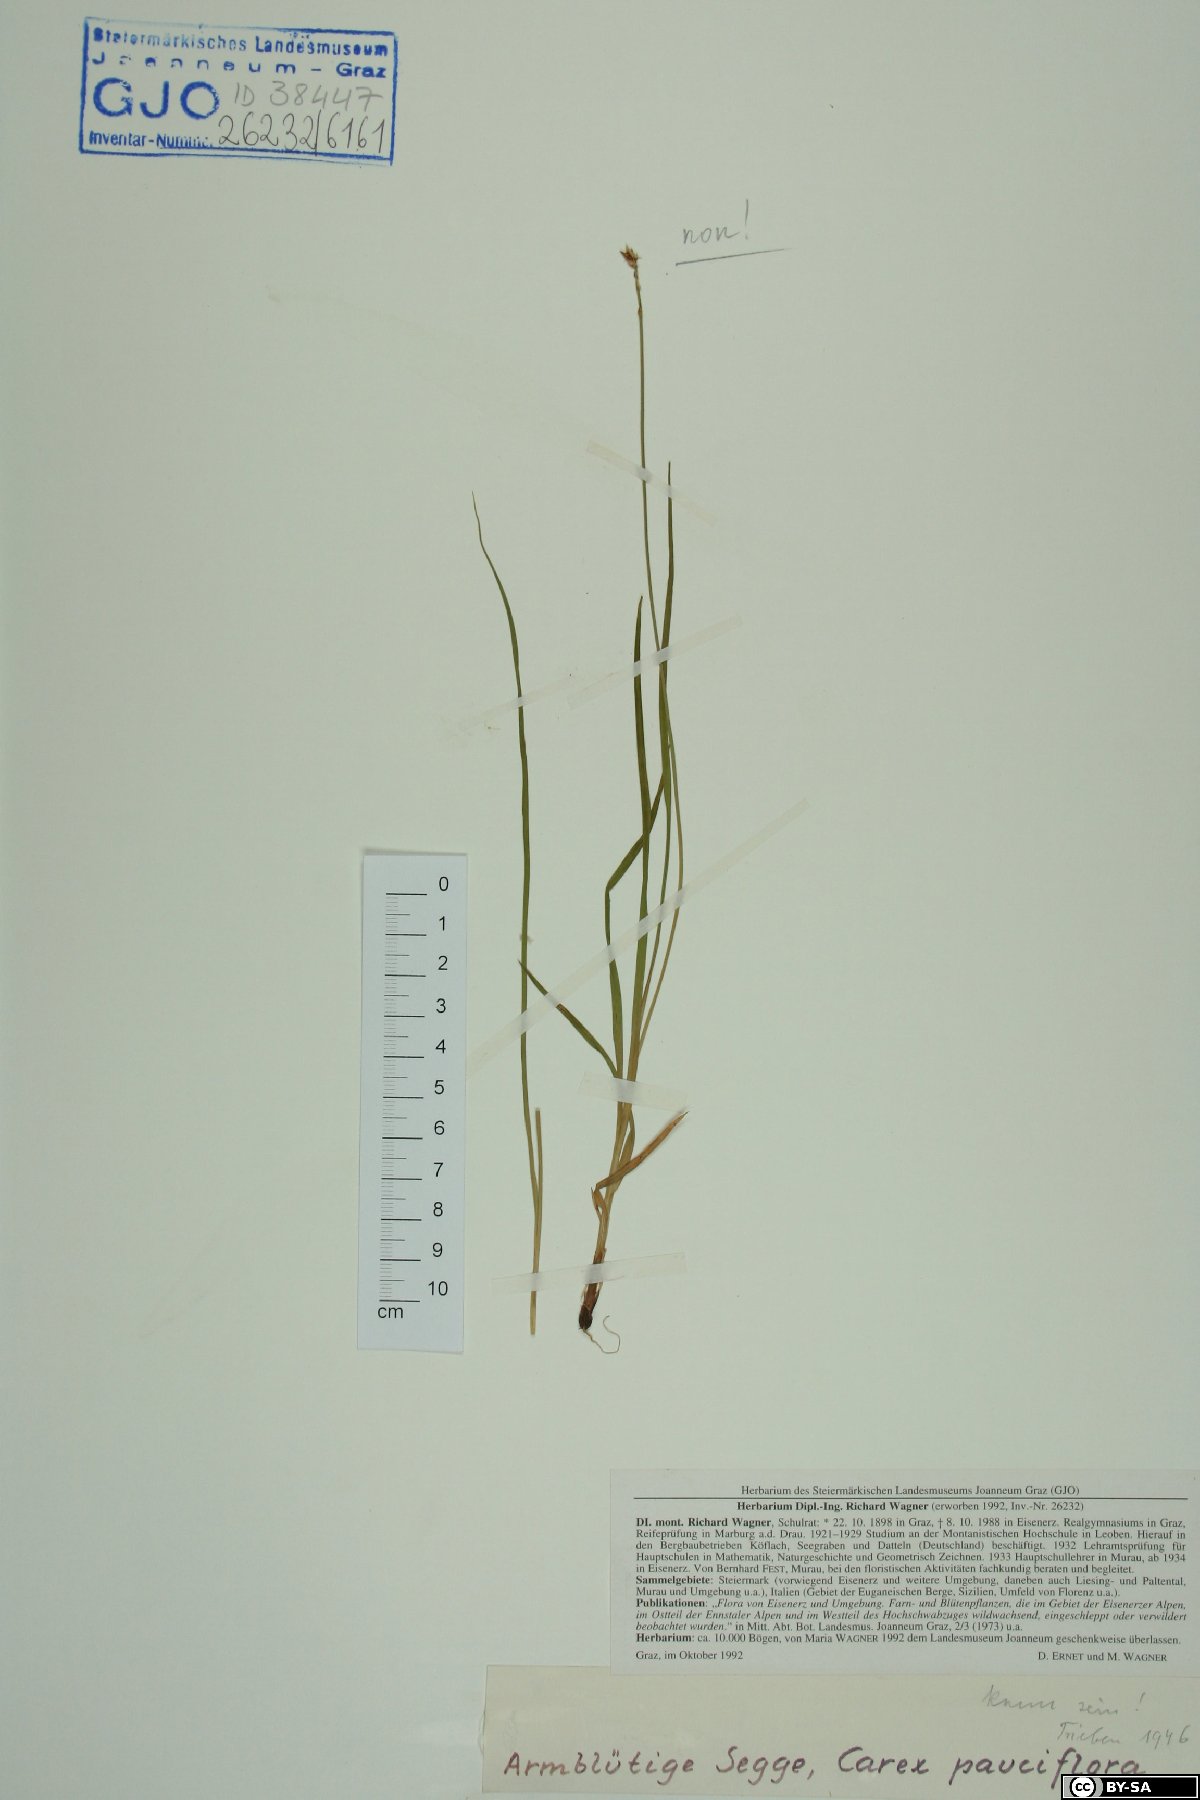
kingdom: Plantae
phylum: Tracheophyta
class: Liliopsida
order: Poales
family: Cyperaceae
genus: Carex
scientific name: Carex pauciflora
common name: Few-flowered sedge
